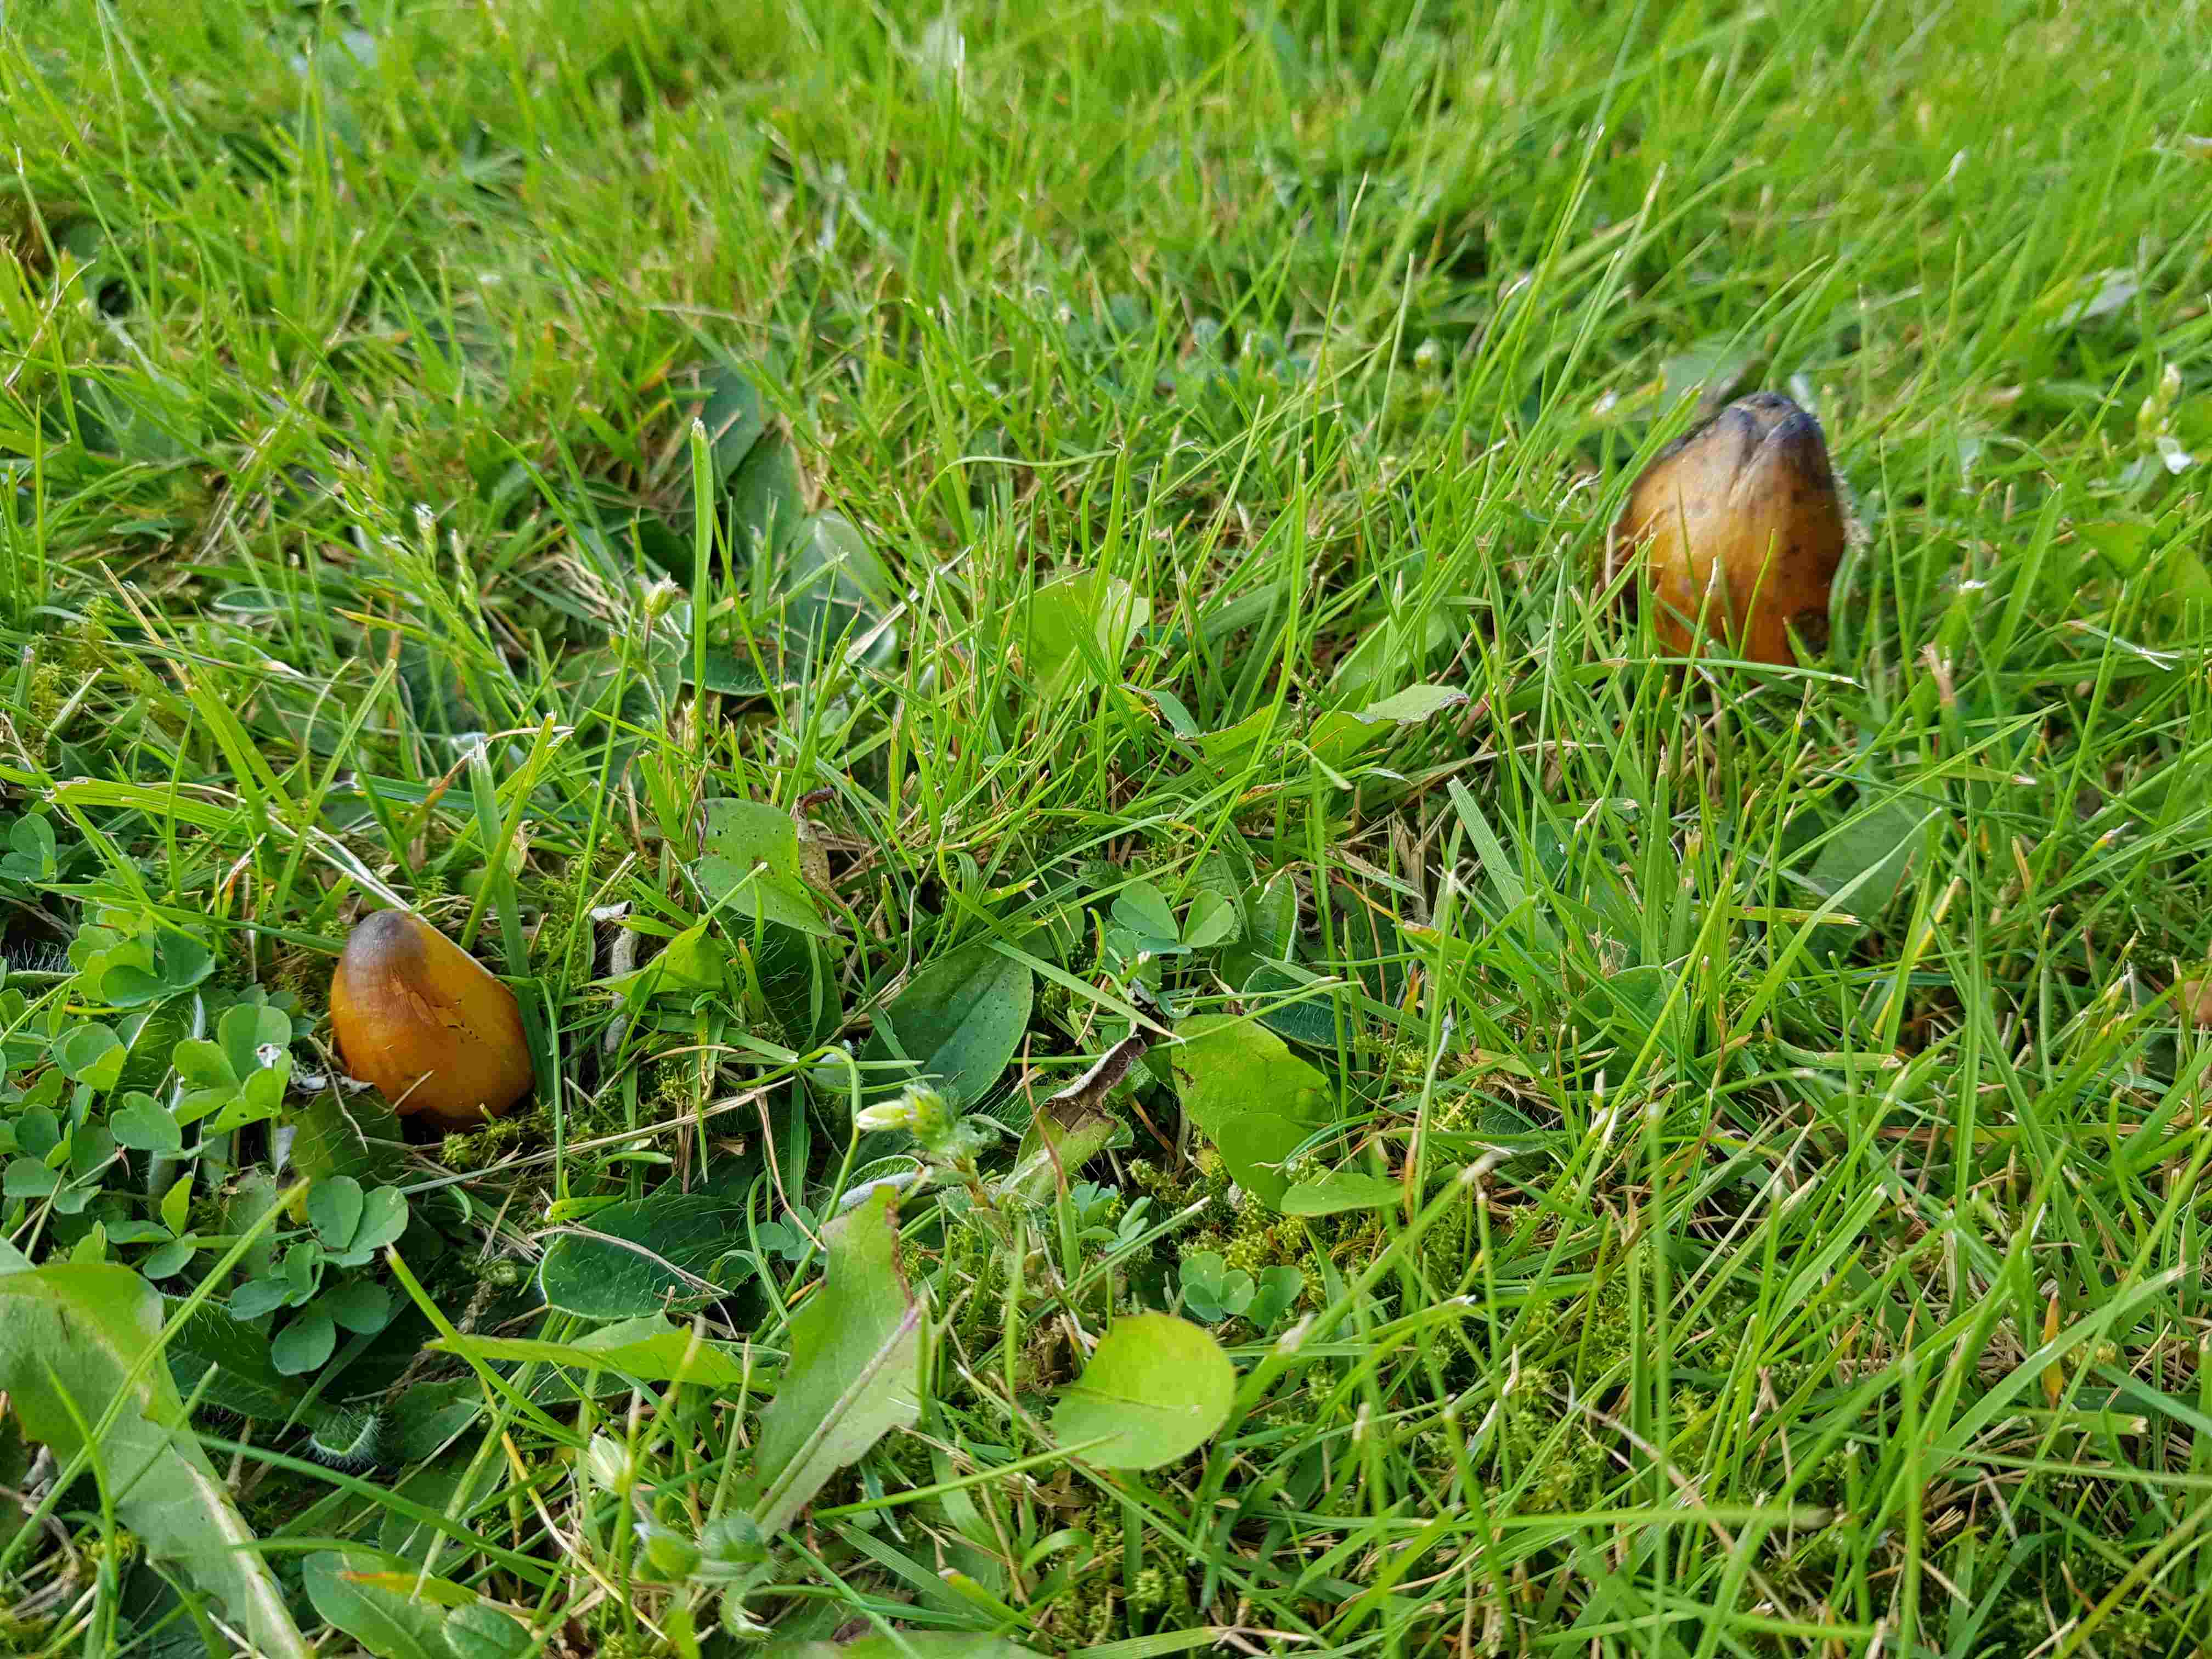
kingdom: Fungi
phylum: Basidiomycota
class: Agaricomycetes
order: Agaricales
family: Hygrophoraceae
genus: Hygrocybe
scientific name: Hygrocybe conica
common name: kegle-vokshat
